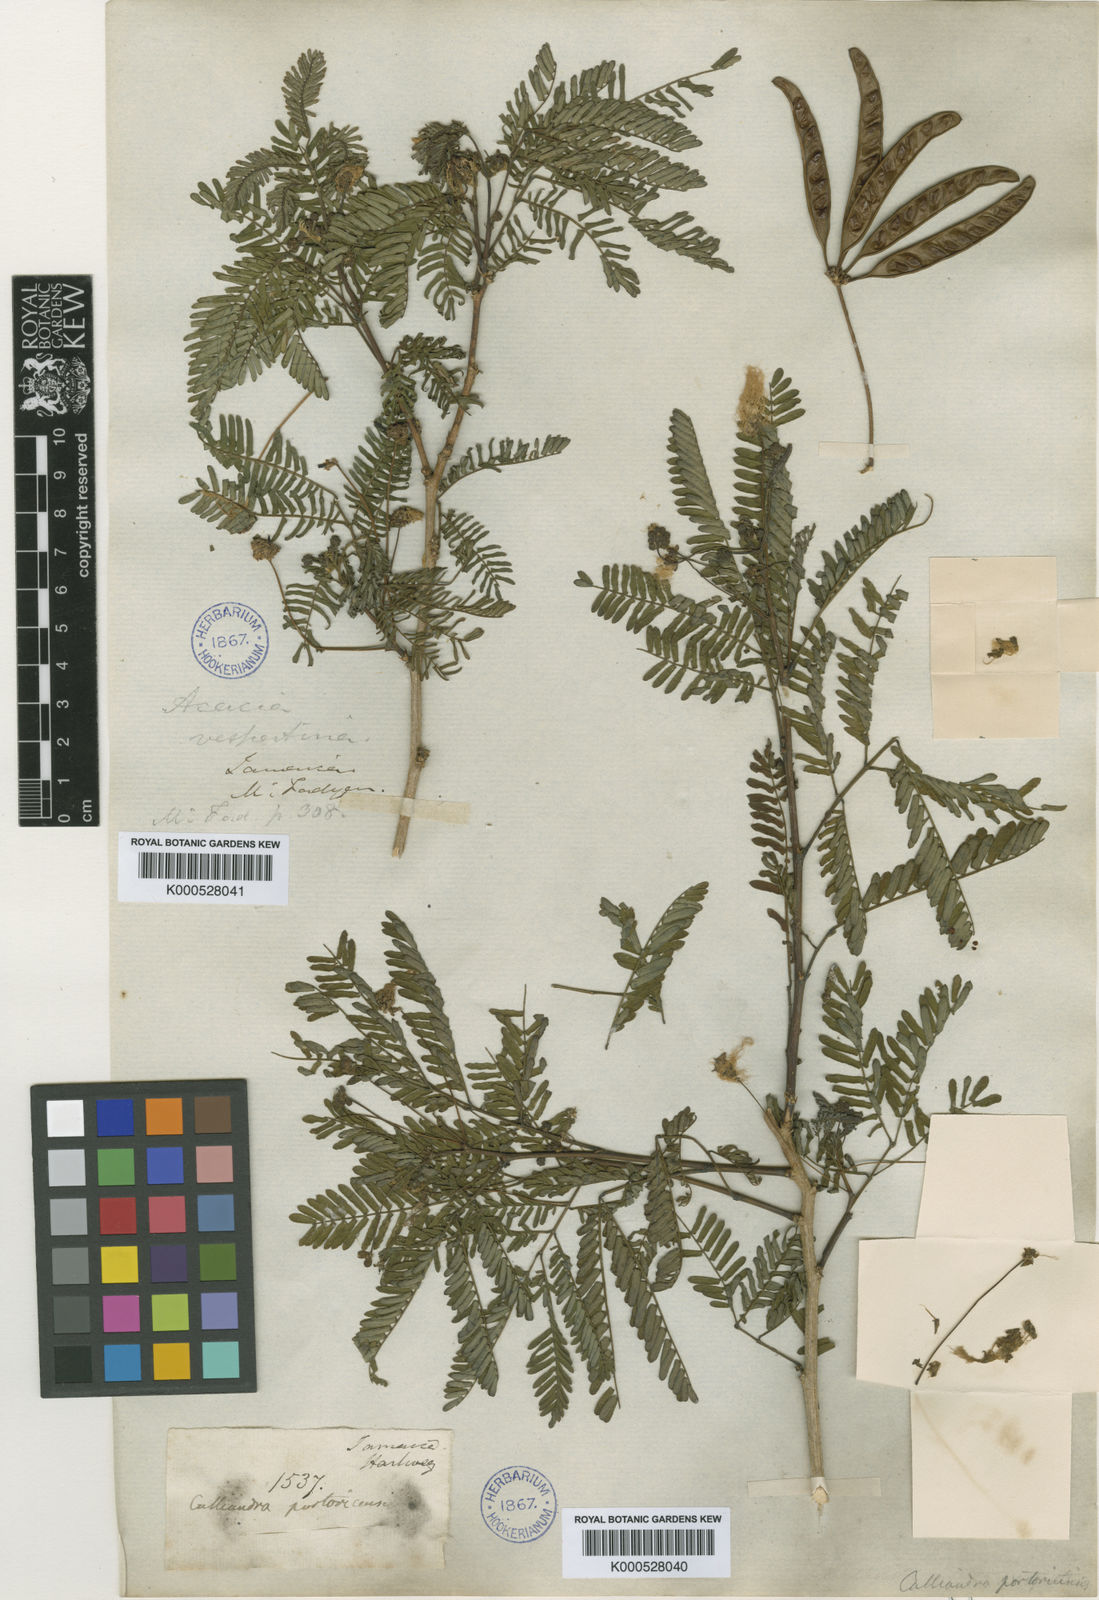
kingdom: Plantae
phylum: Tracheophyta
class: Magnoliopsida
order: Fabales
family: Fabaceae
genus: Zapoteca
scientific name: Zapoteca portoricensis
